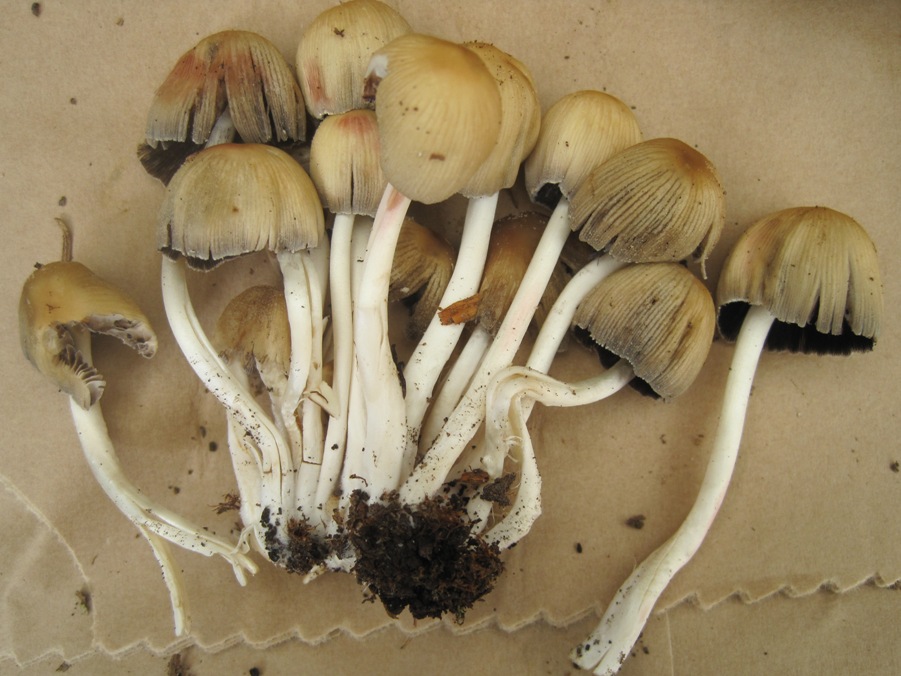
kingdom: Fungi
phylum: Basidiomycota
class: Agaricomycetes
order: Agaricales
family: Psathyrellaceae
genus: Coprinellus
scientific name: Coprinellus micaceus
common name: glimmer-blækhat
